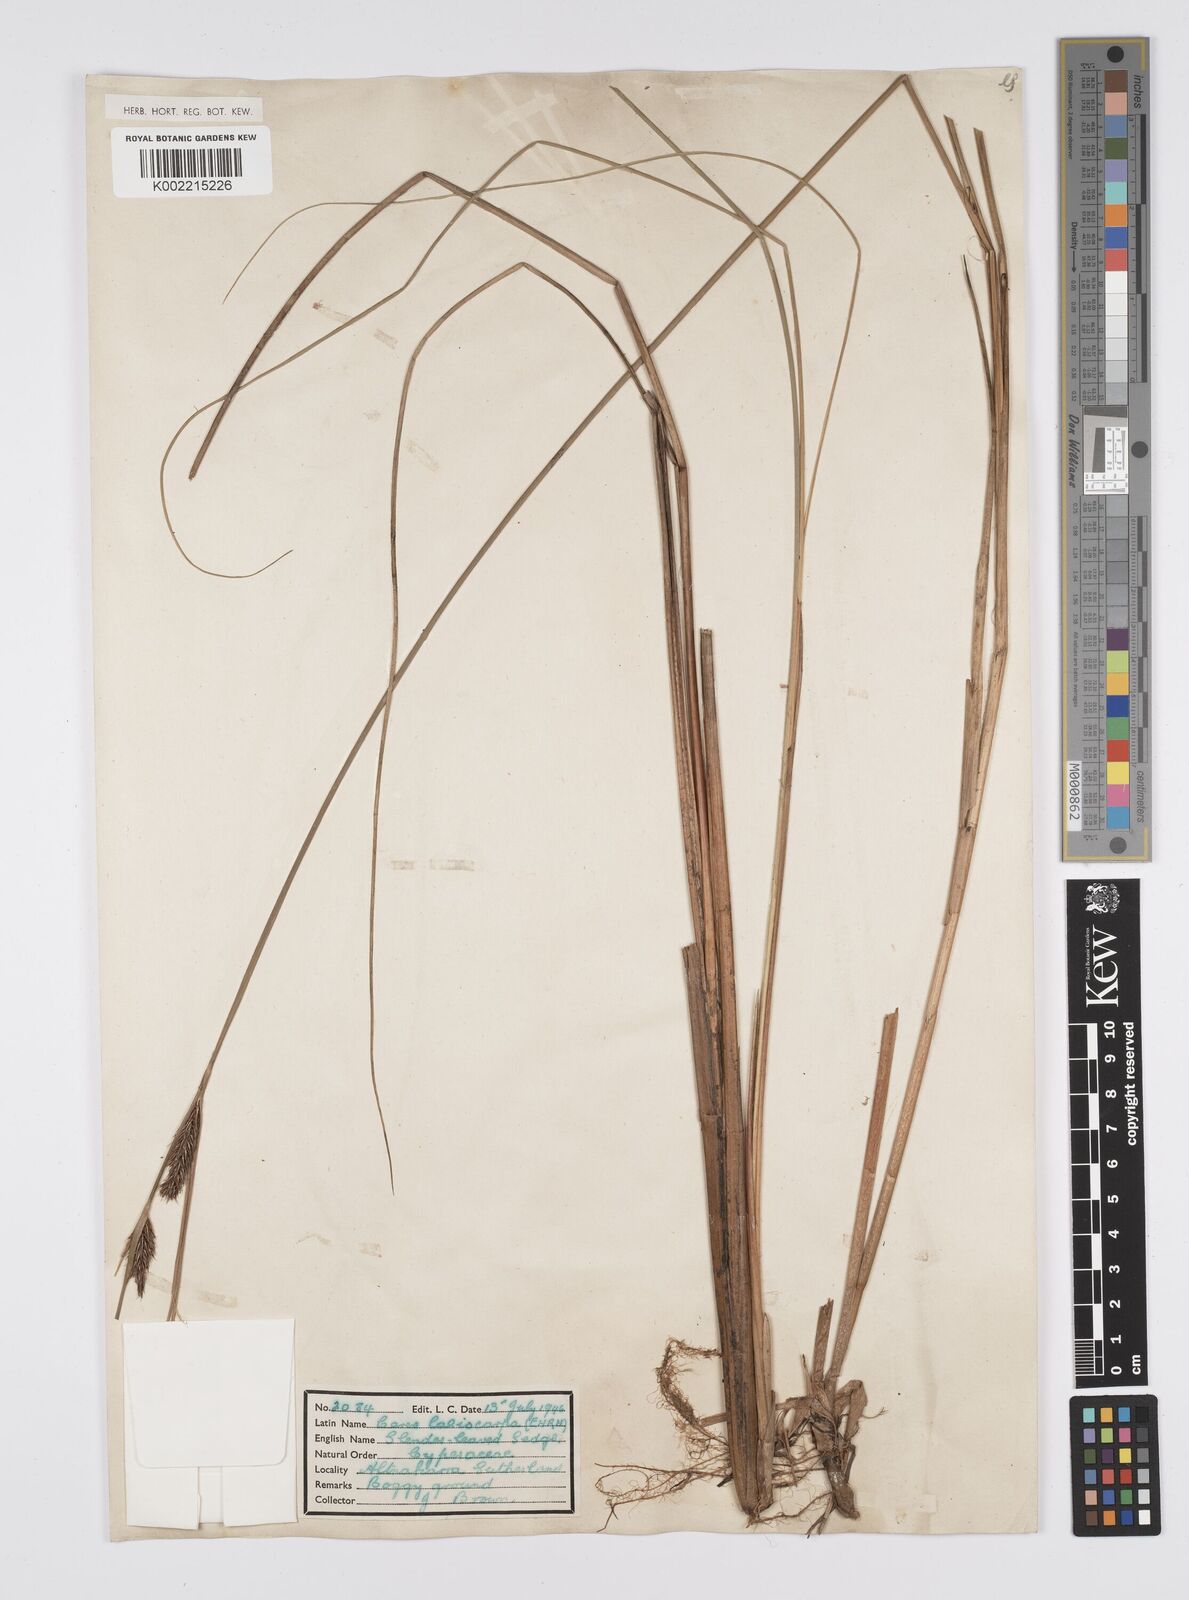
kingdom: Plantae
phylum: Tracheophyta
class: Liliopsida
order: Poales
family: Cyperaceae
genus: Carex
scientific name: Carex lasiocarpa
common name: Slender sedge
